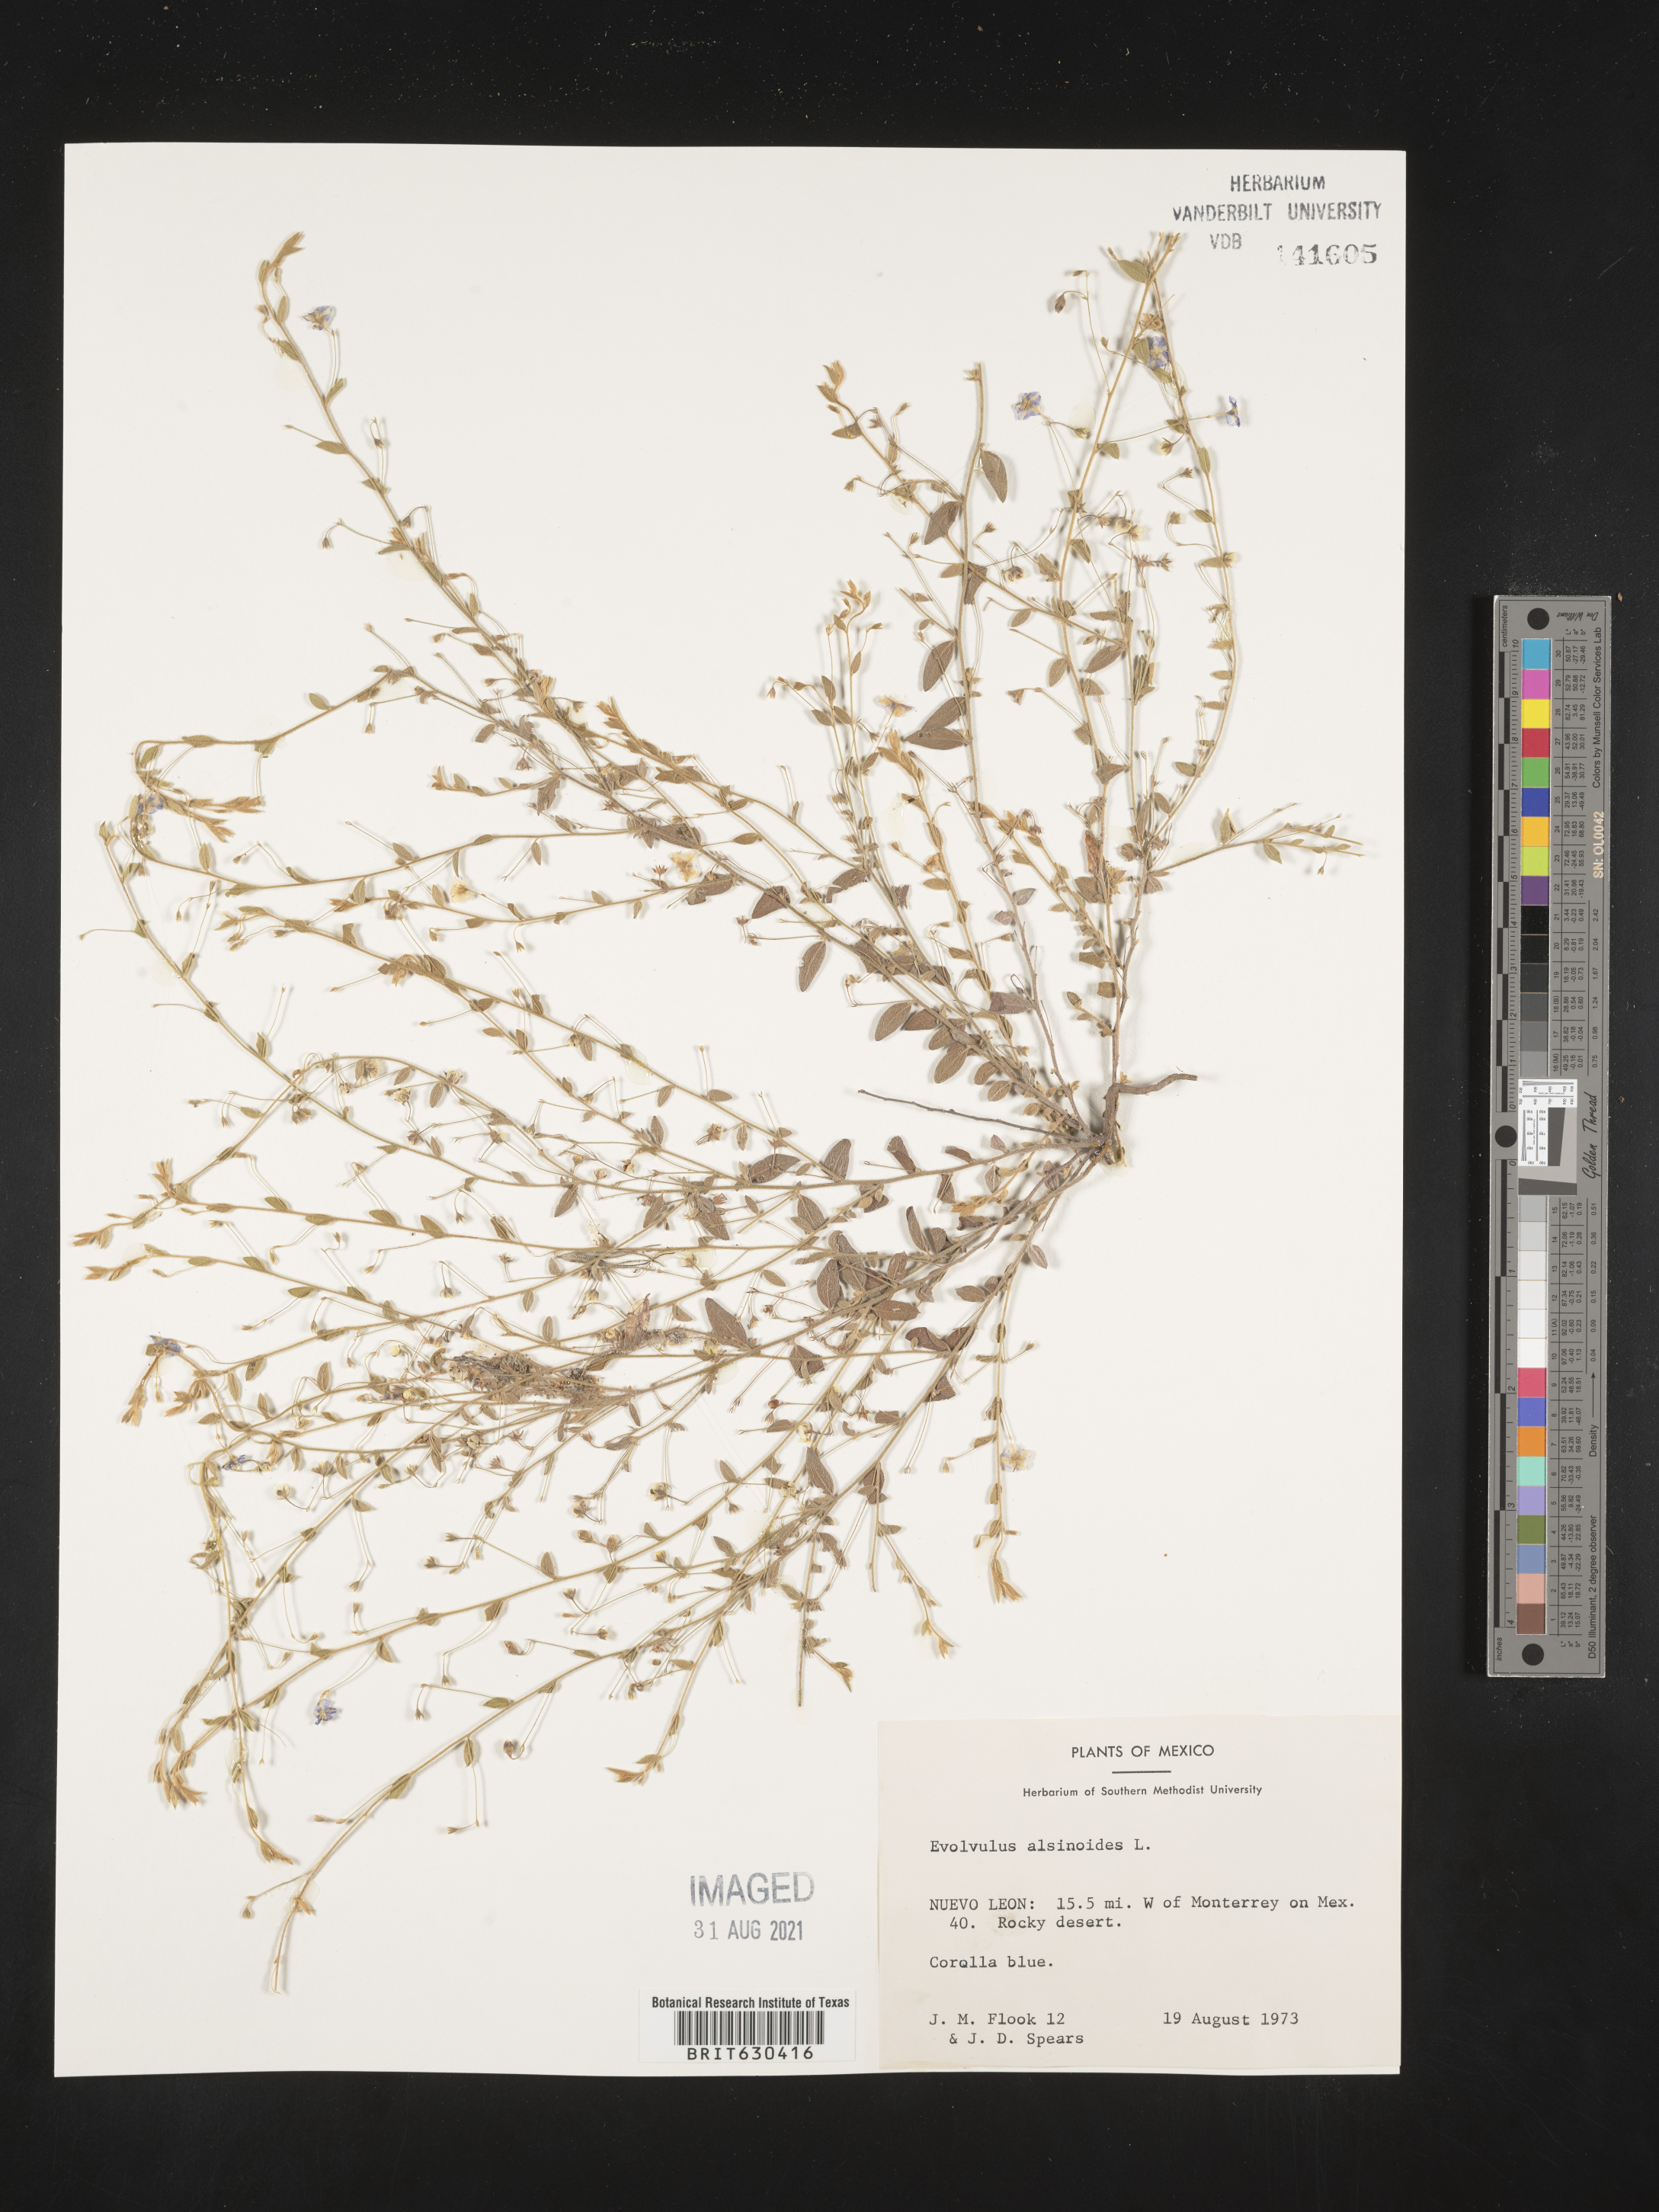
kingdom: Plantae
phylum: Tracheophyta
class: Magnoliopsida
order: Solanales
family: Convolvulaceae
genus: Evolvulus
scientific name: Evolvulus
